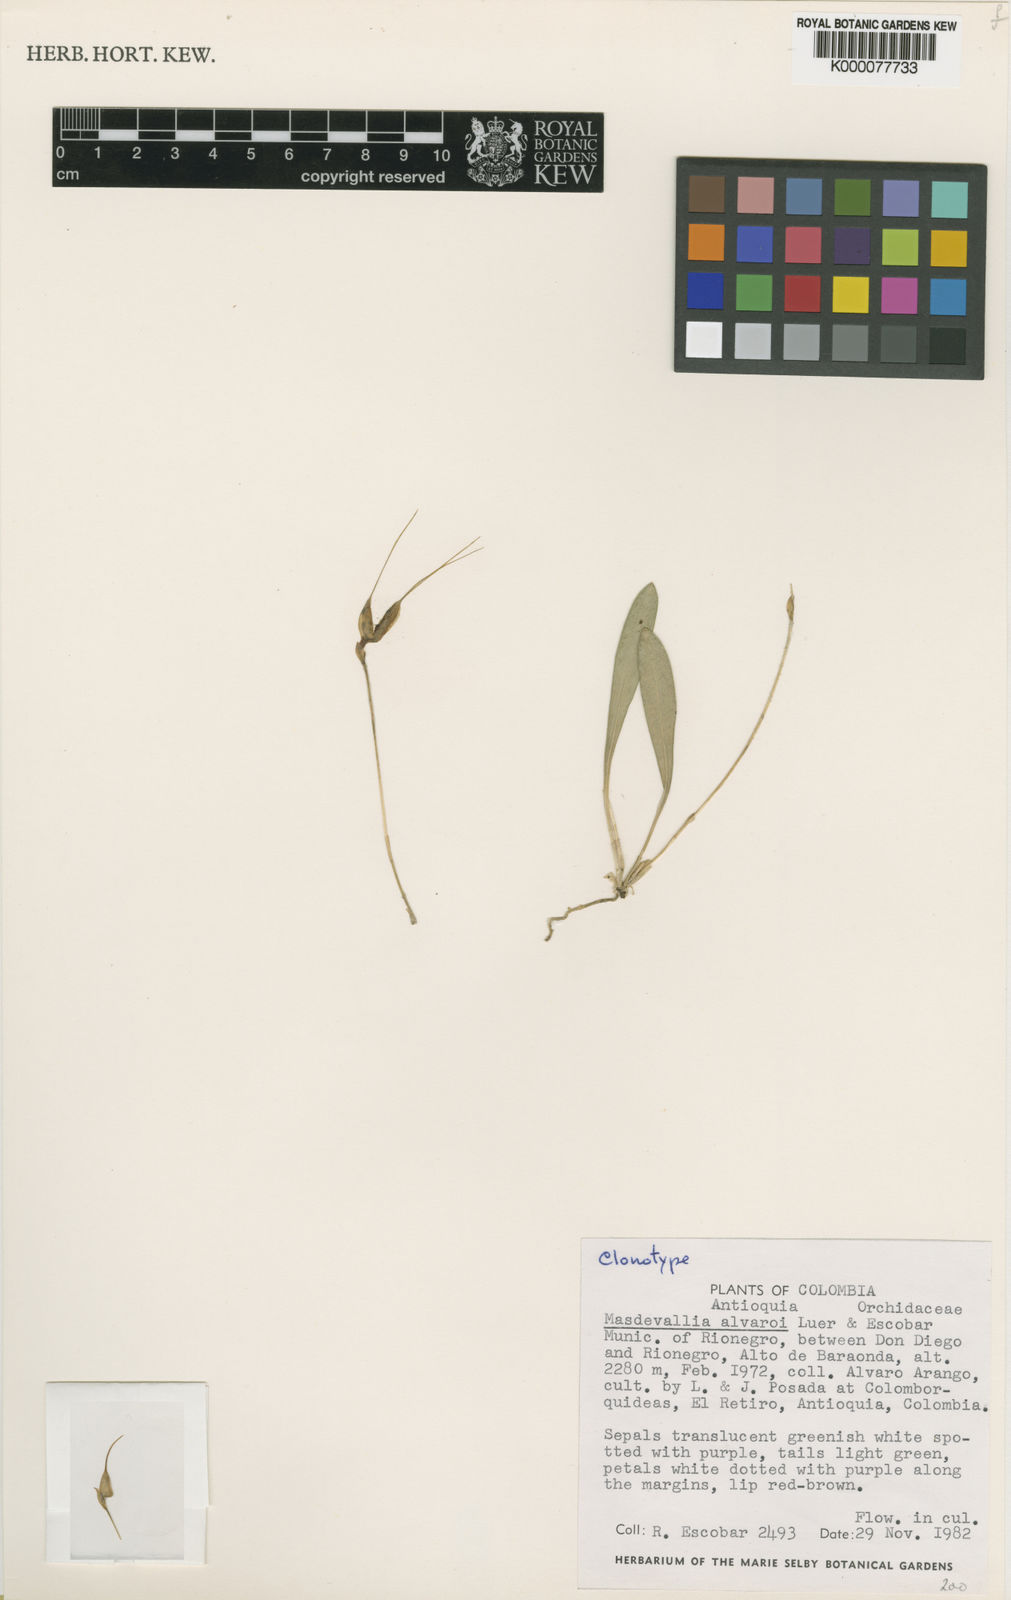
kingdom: Plantae
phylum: Tracheophyta
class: Liliopsida
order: Asparagales
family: Orchidaceae
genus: Masdevallia
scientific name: Masdevallia alvaroi
